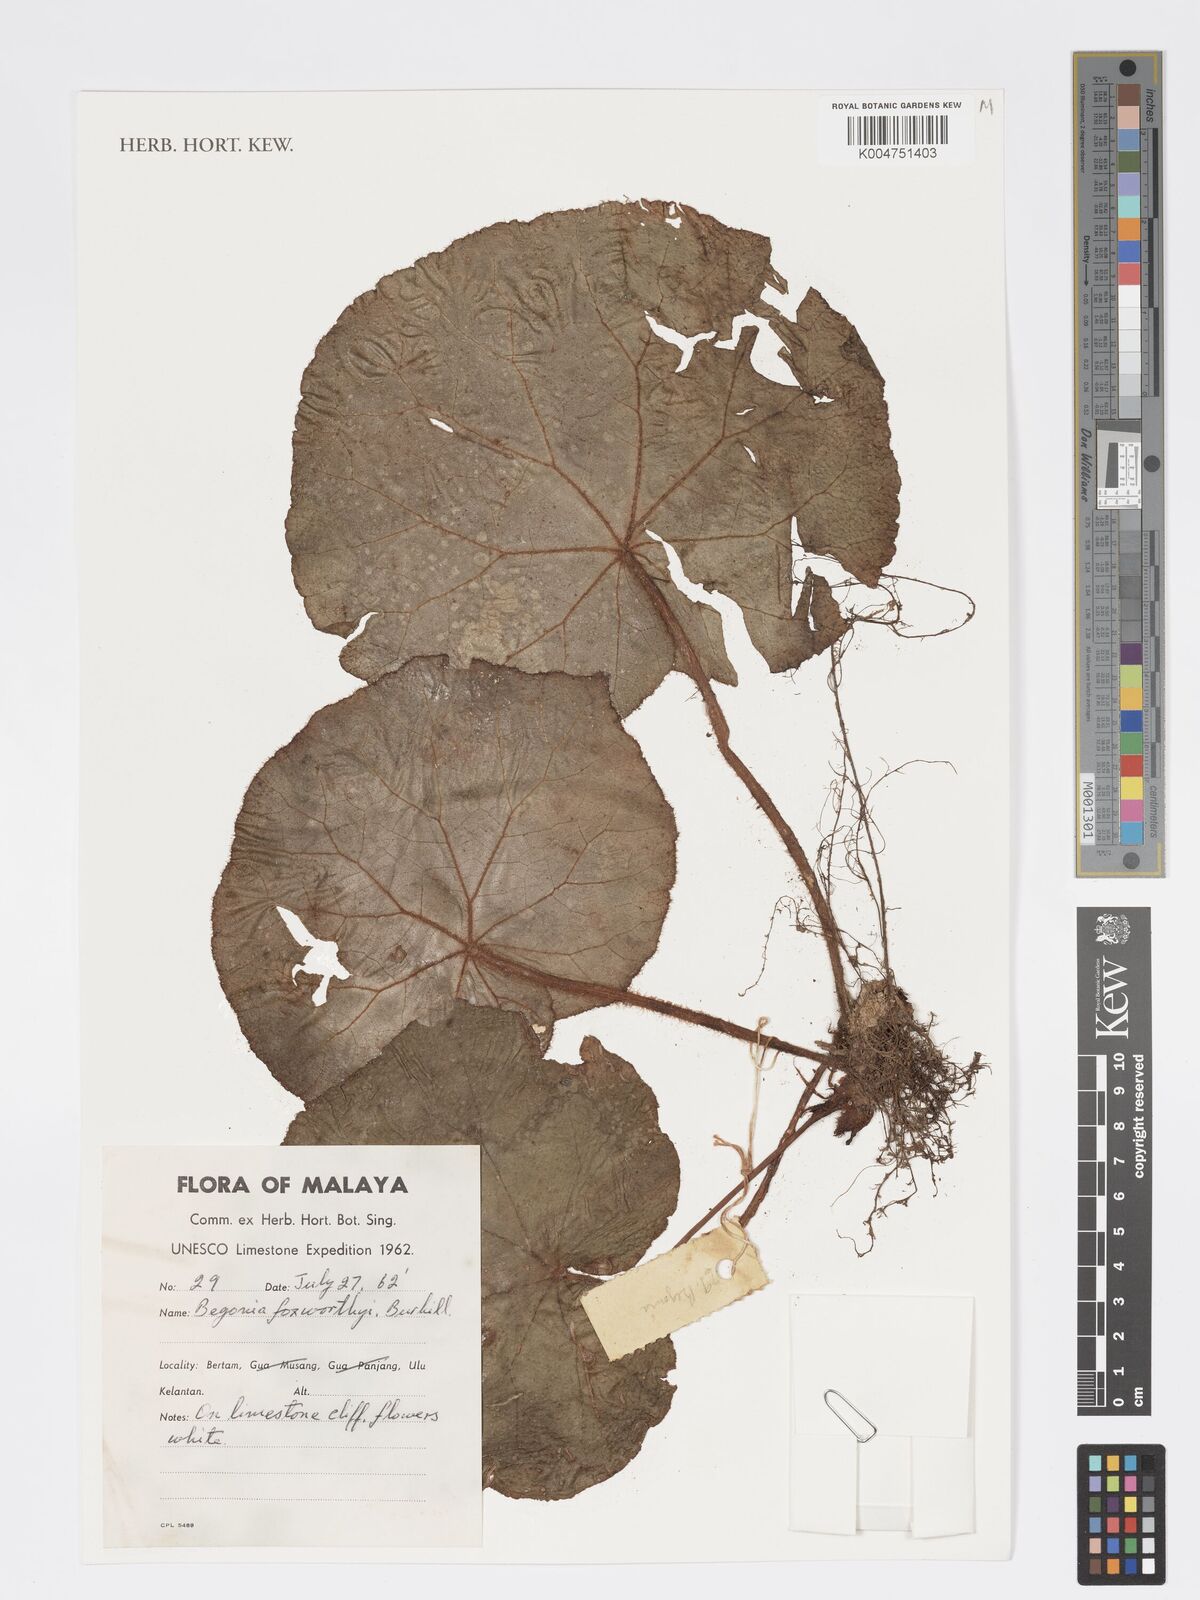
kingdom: Plantae
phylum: Tracheophyta
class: Magnoliopsida
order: Cucurbitales
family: Begoniaceae
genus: Begonia
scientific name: Begonia foxworthyi
